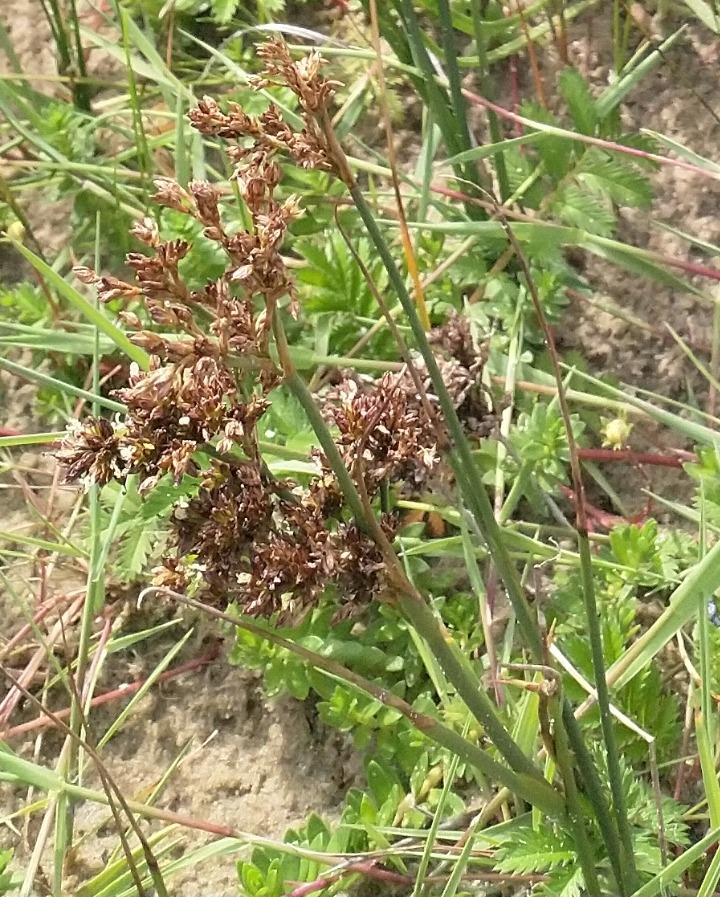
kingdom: Plantae
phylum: Tracheophyta
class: Liliopsida
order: Poales
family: Juncaceae
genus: Juncus
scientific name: Juncus anceps
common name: Sand-siv
